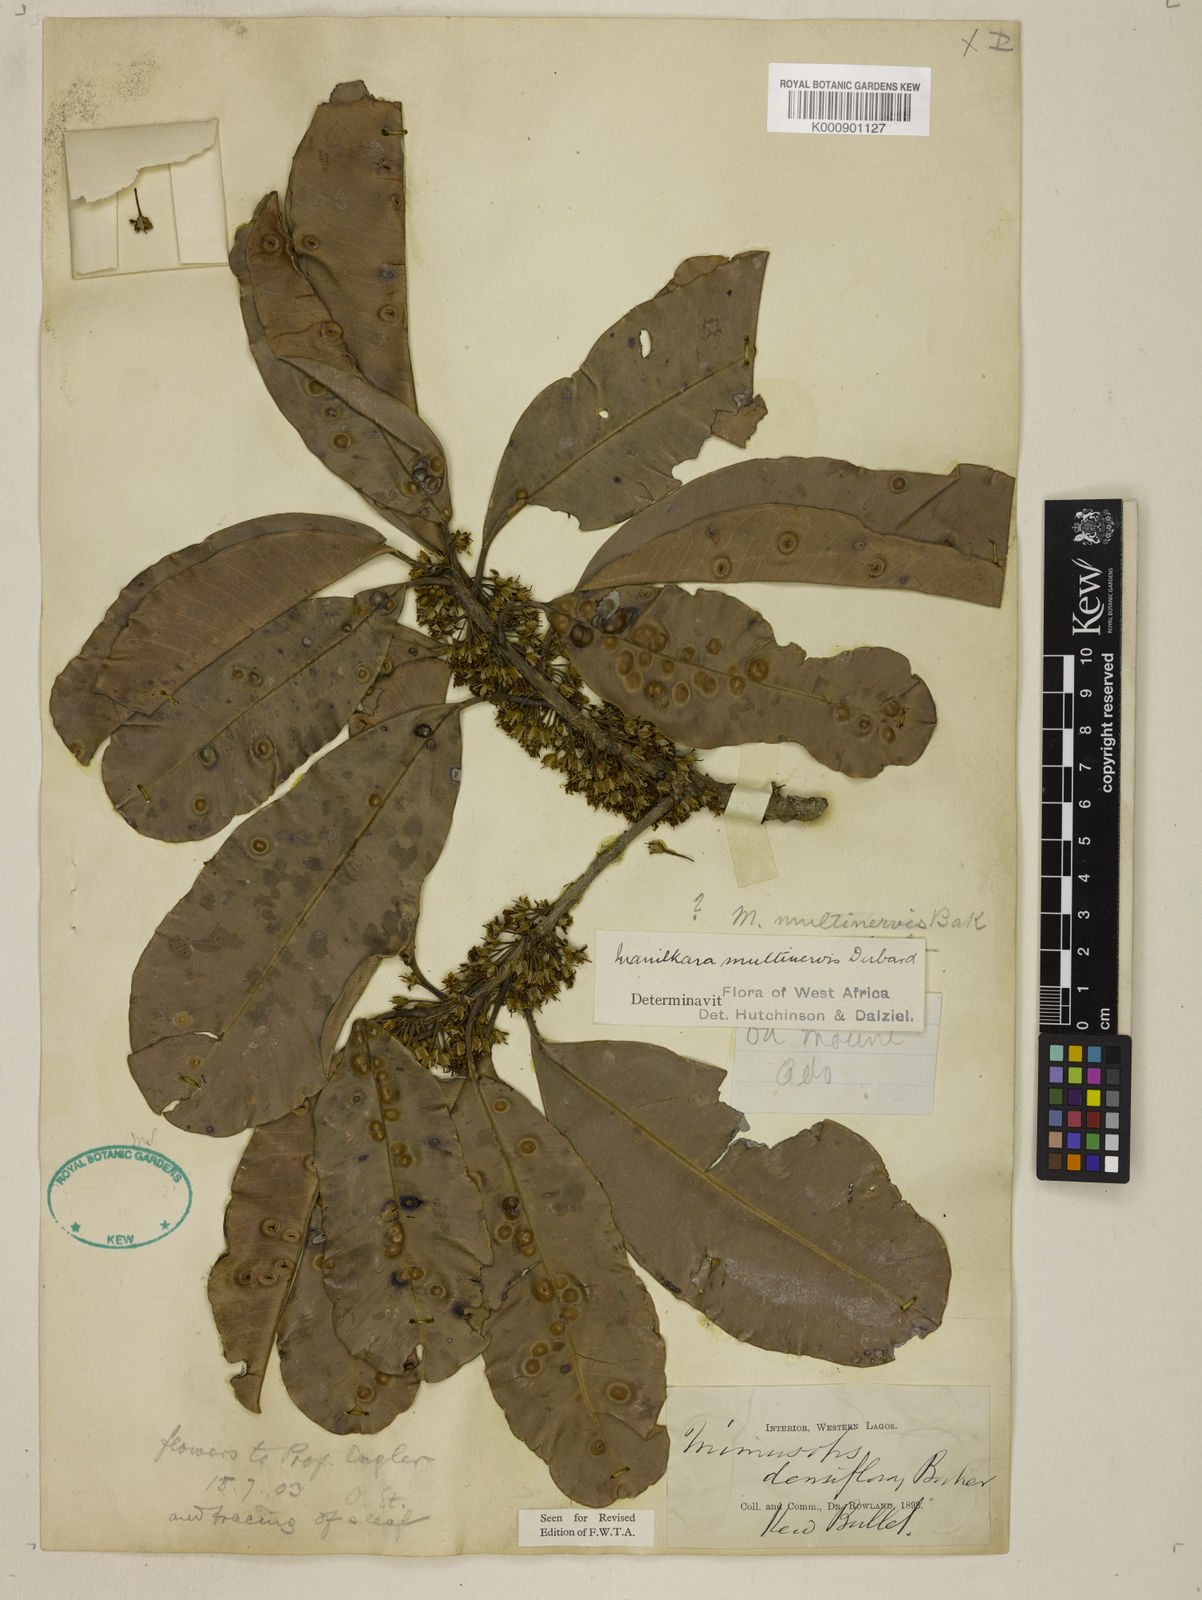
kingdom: Plantae
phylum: Tracheophyta
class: Magnoliopsida
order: Ericales
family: Sapotaceae
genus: Manilkara
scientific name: Manilkara obovata
